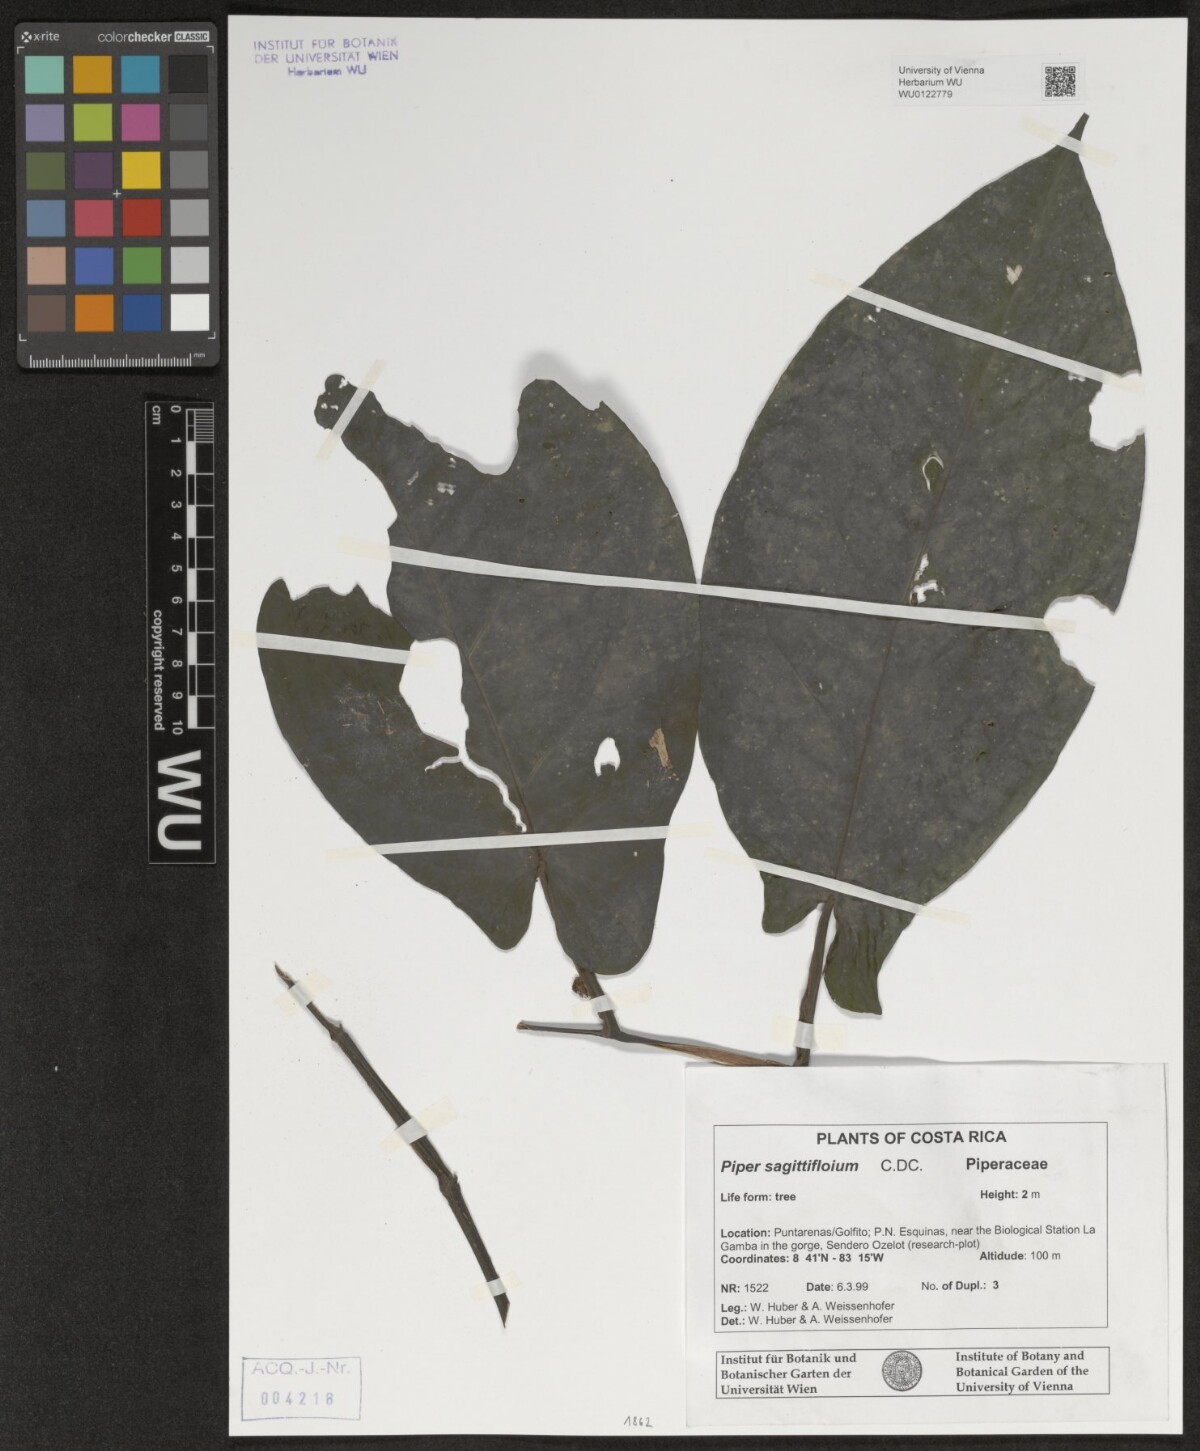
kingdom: Plantae
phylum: Tracheophyta
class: Magnoliopsida
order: Piperales
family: Piperaceae
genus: Piper
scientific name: Piper sagittifolium
